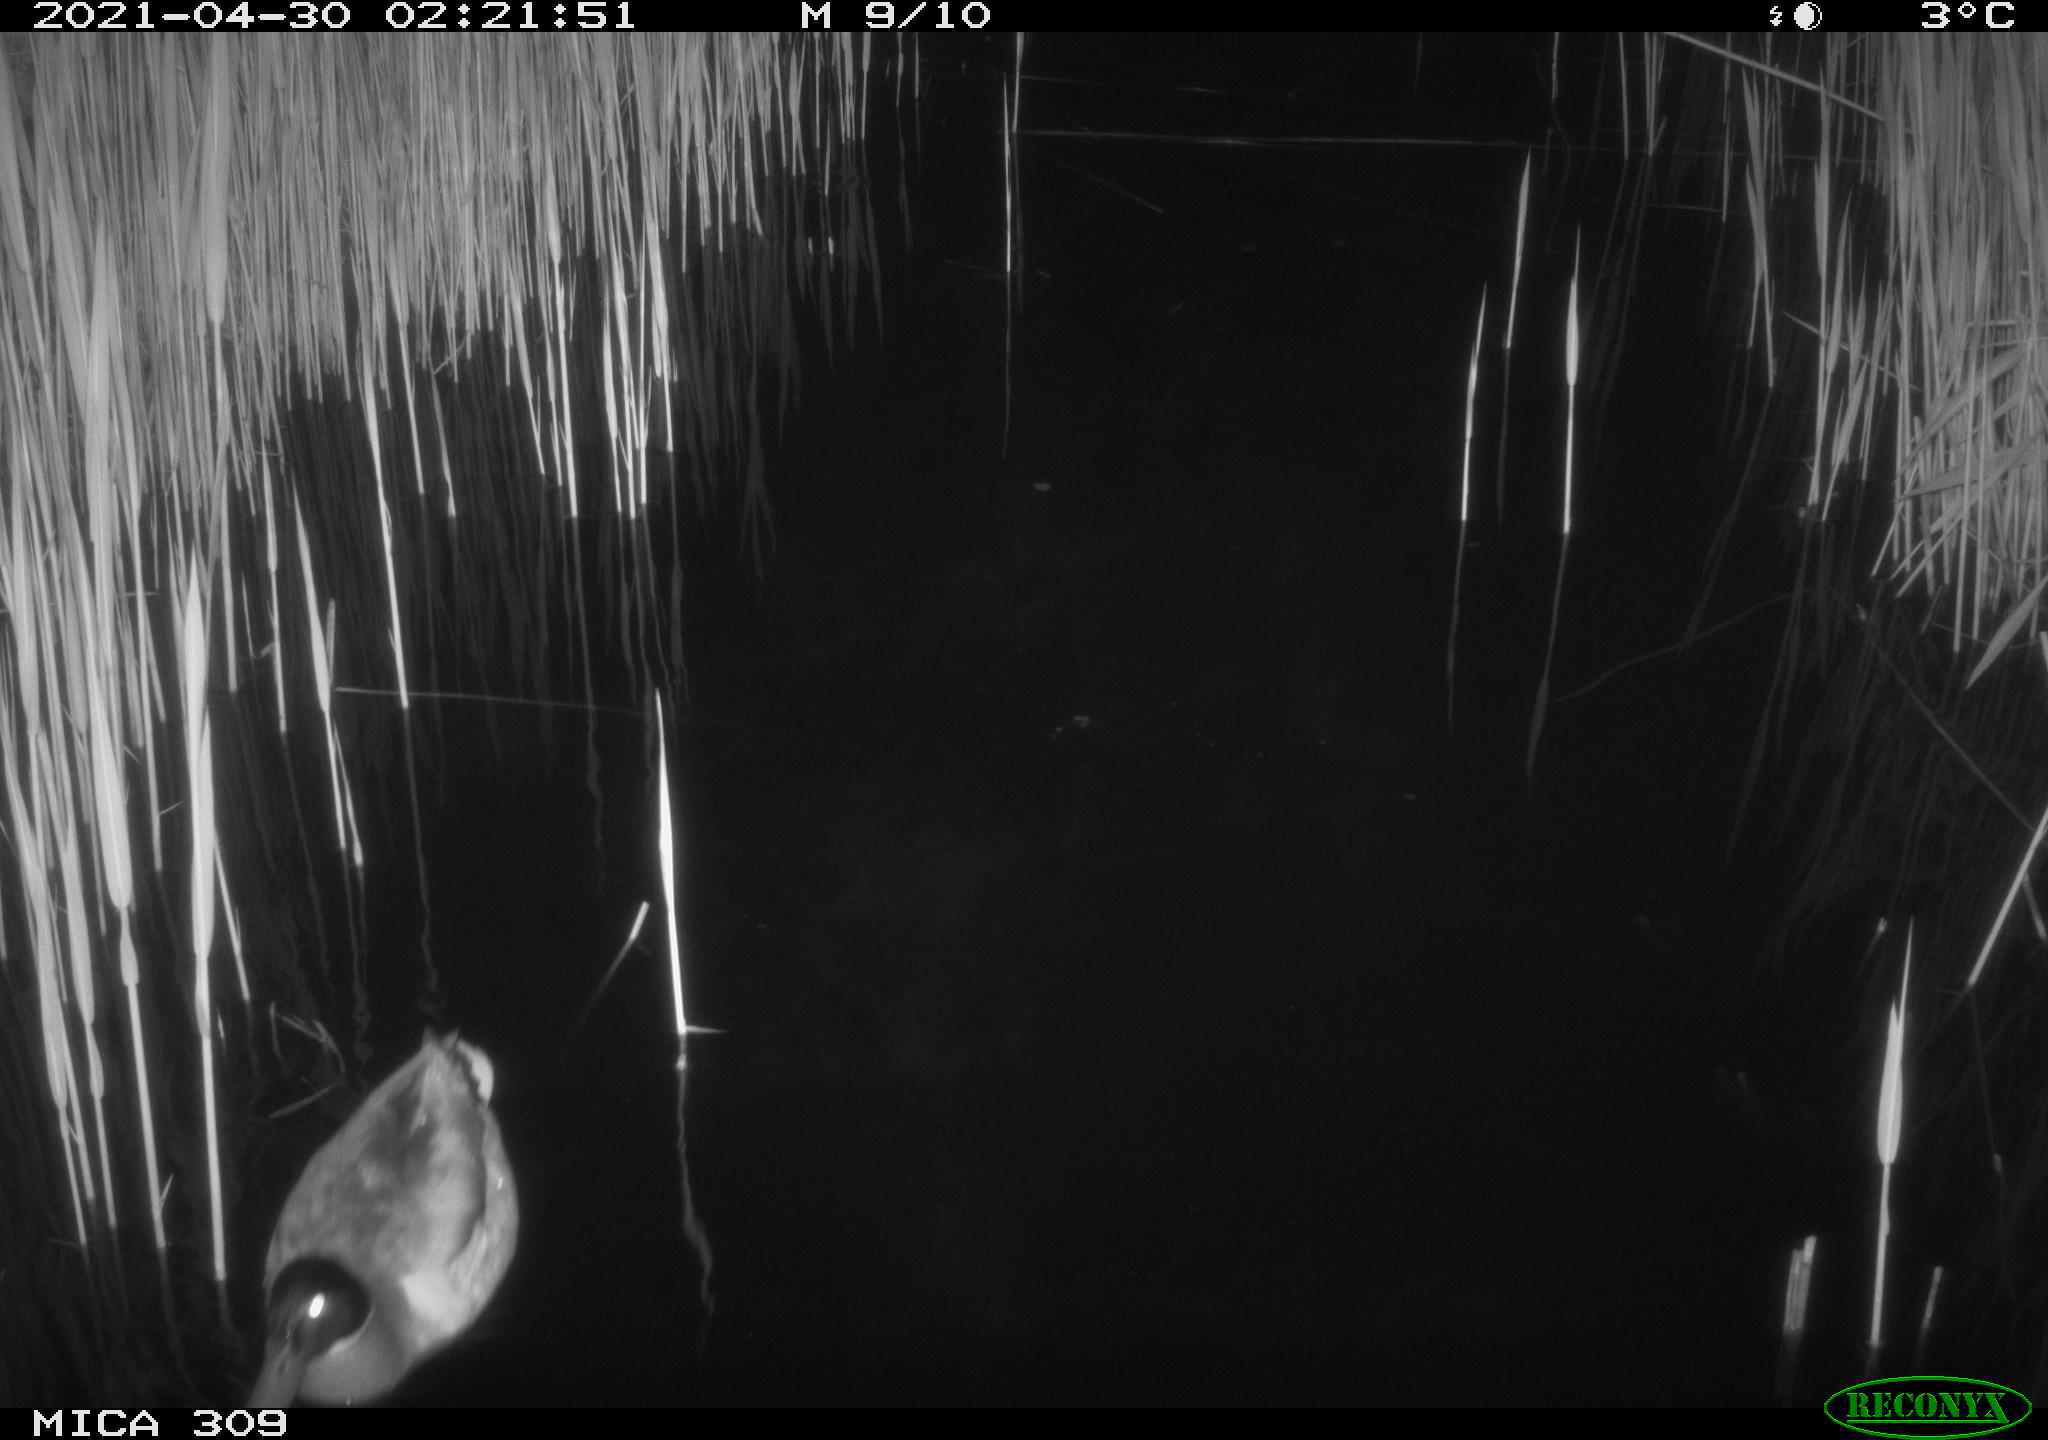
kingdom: Animalia
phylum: Chordata
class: Aves
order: Anseriformes
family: Anatidae
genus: Anas
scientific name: Anas platyrhynchos
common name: Mallard
